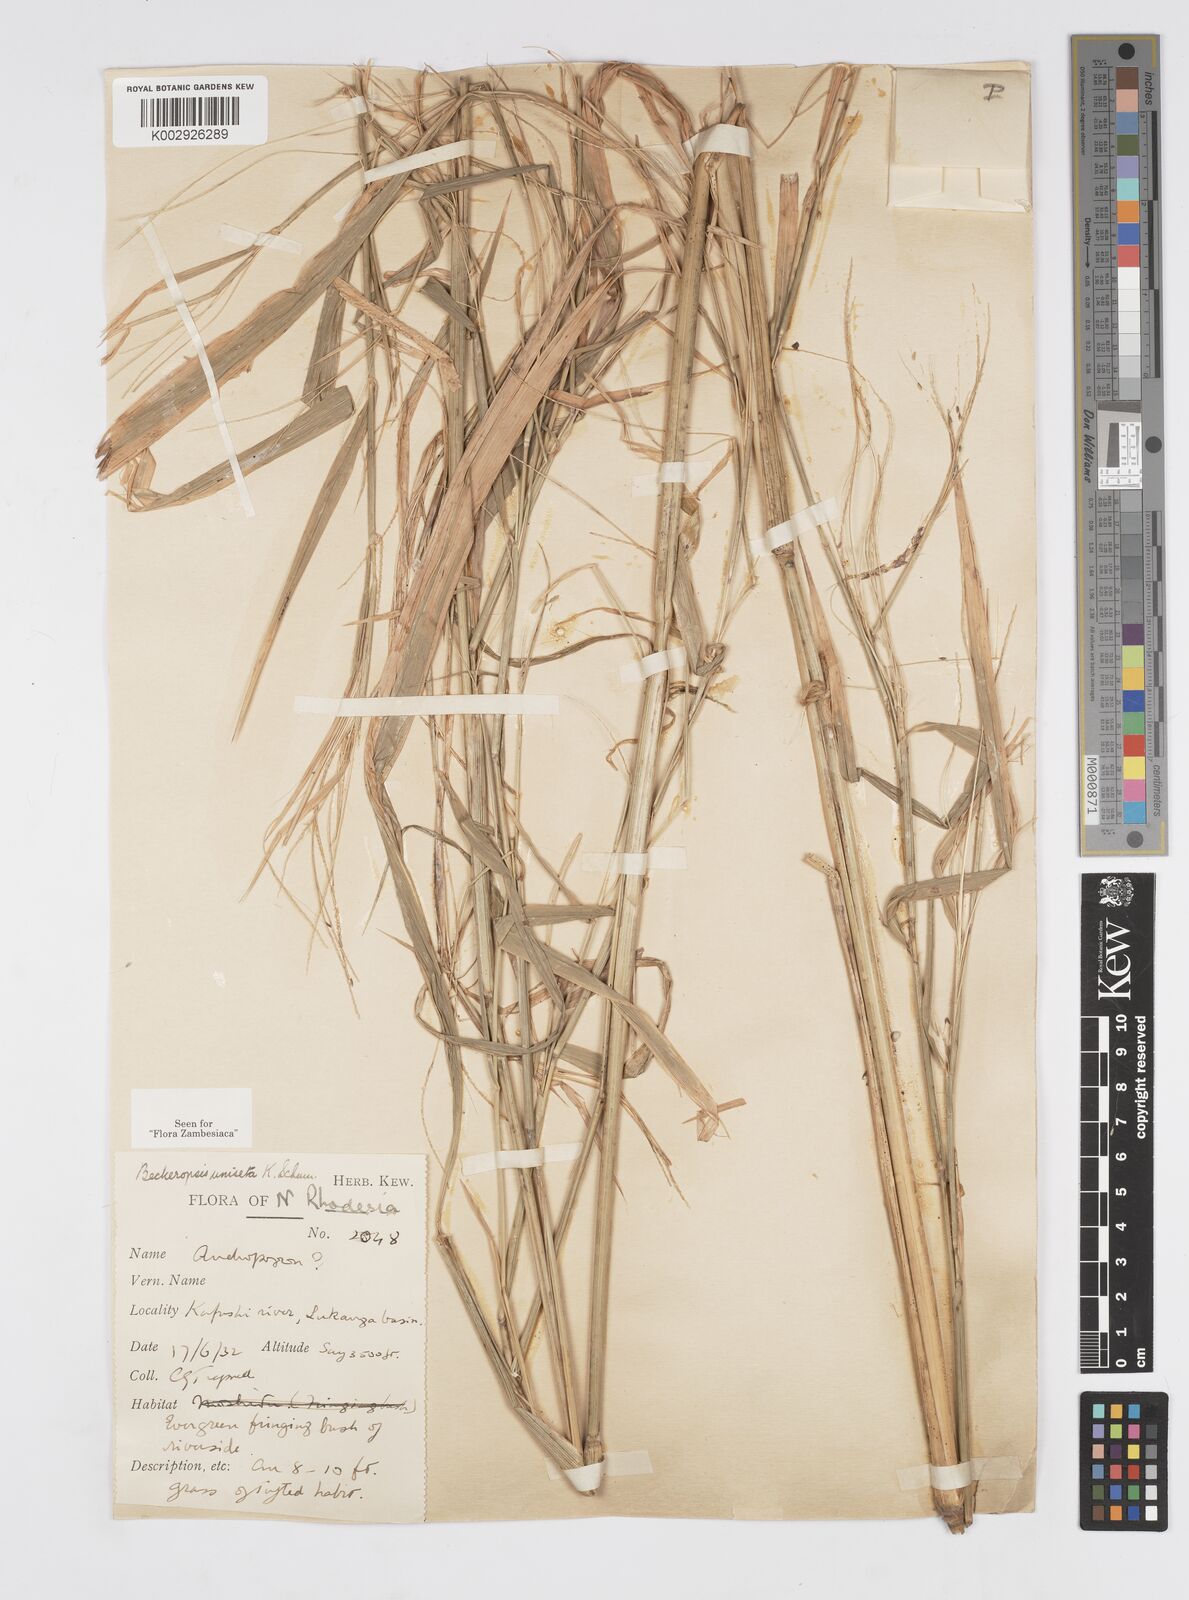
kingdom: Plantae
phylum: Tracheophyta
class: Liliopsida
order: Poales
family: Poaceae
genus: Cenchrus
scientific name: Cenchrus unisetus
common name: Natal grass
